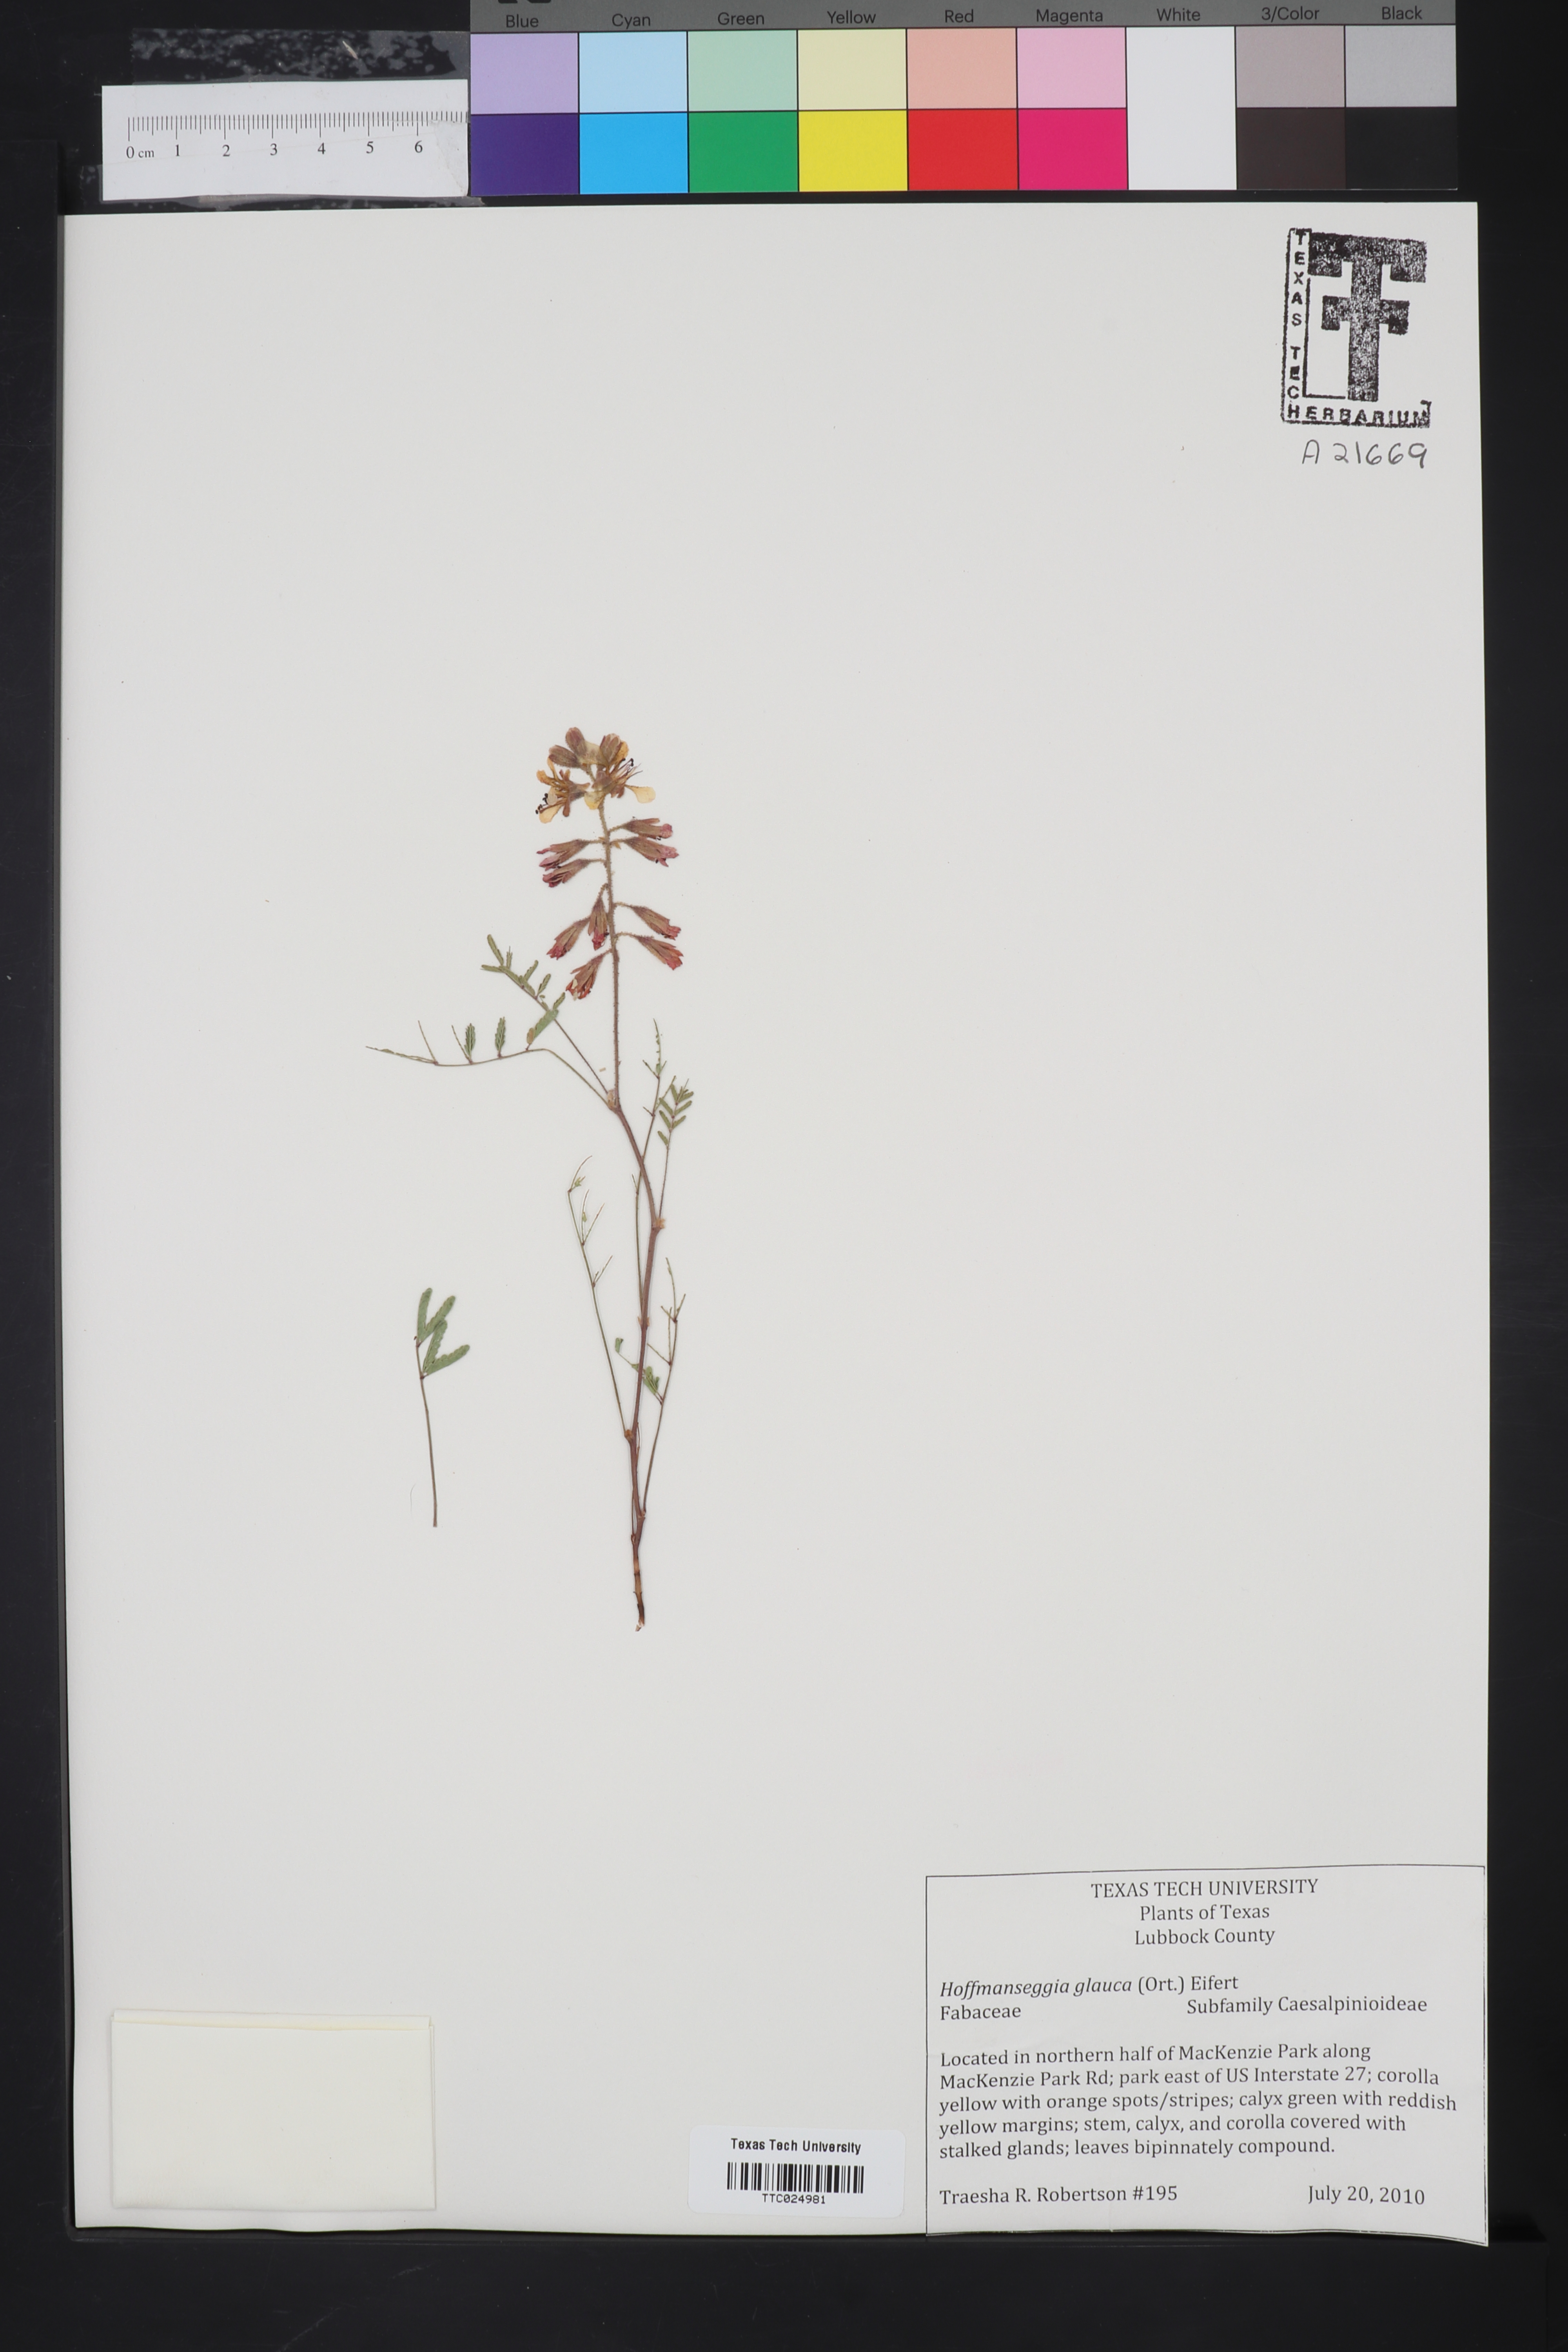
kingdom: Plantae
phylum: Tracheophyta
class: Magnoliopsida
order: Fabales
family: Fabaceae
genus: Hoffmannseggia
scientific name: Hoffmannseggia
